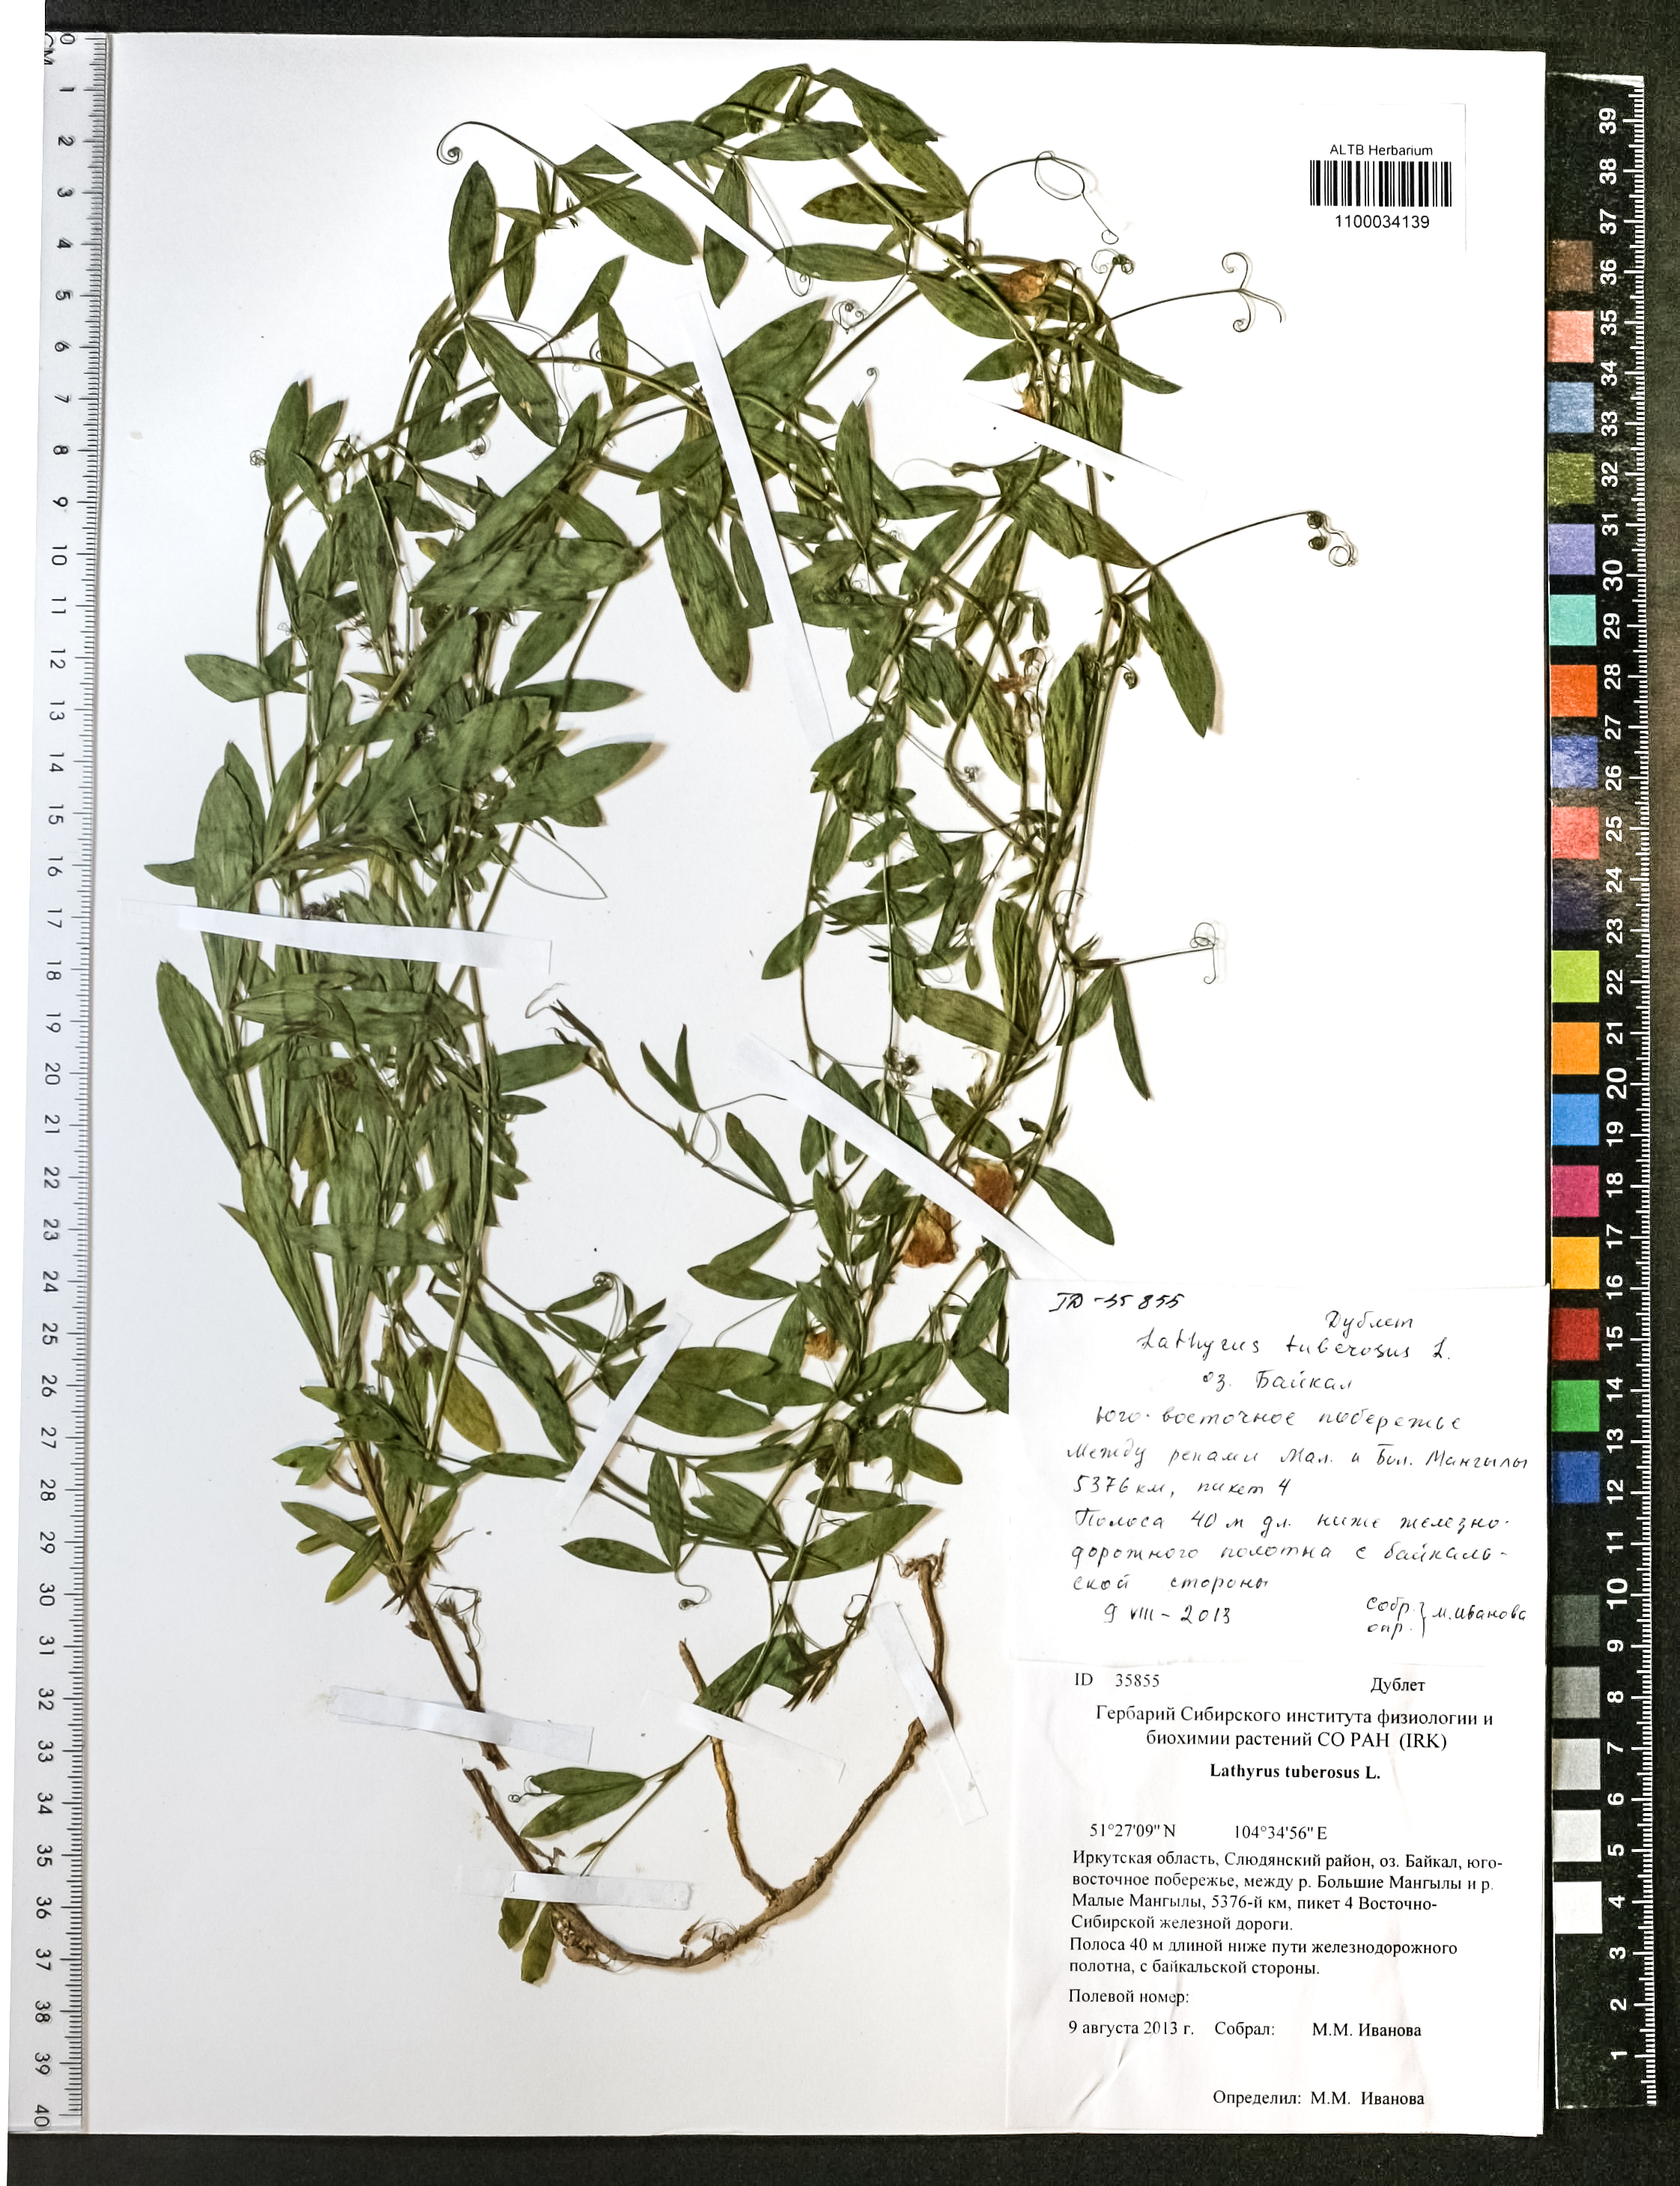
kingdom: Plantae
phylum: Tracheophyta
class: Magnoliopsida
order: Fabales
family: Fabaceae
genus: Lathyrus
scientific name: Lathyrus tuberosus
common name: Tuberous pea
